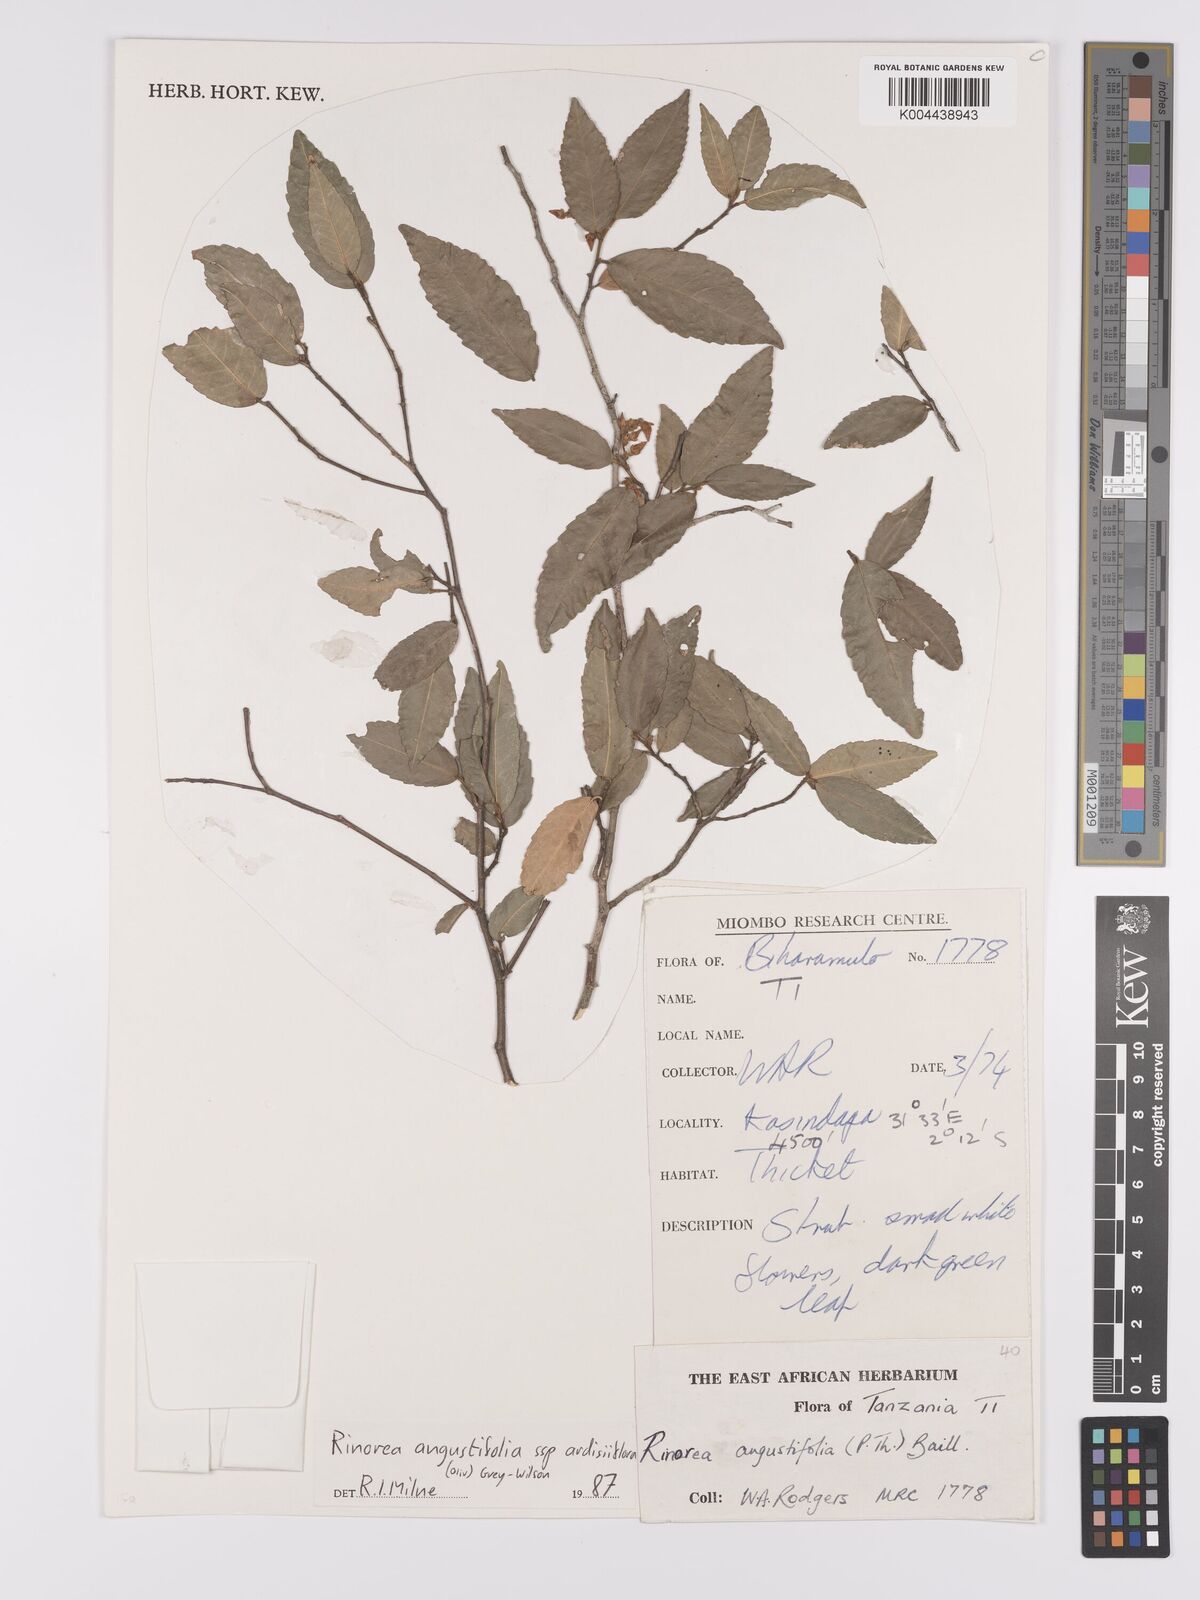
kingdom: Plantae
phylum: Tracheophyta
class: Magnoliopsida
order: Malpighiales
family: Violaceae
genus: Rinorea
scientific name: Rinorea angustifolia
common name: White violet-bush
